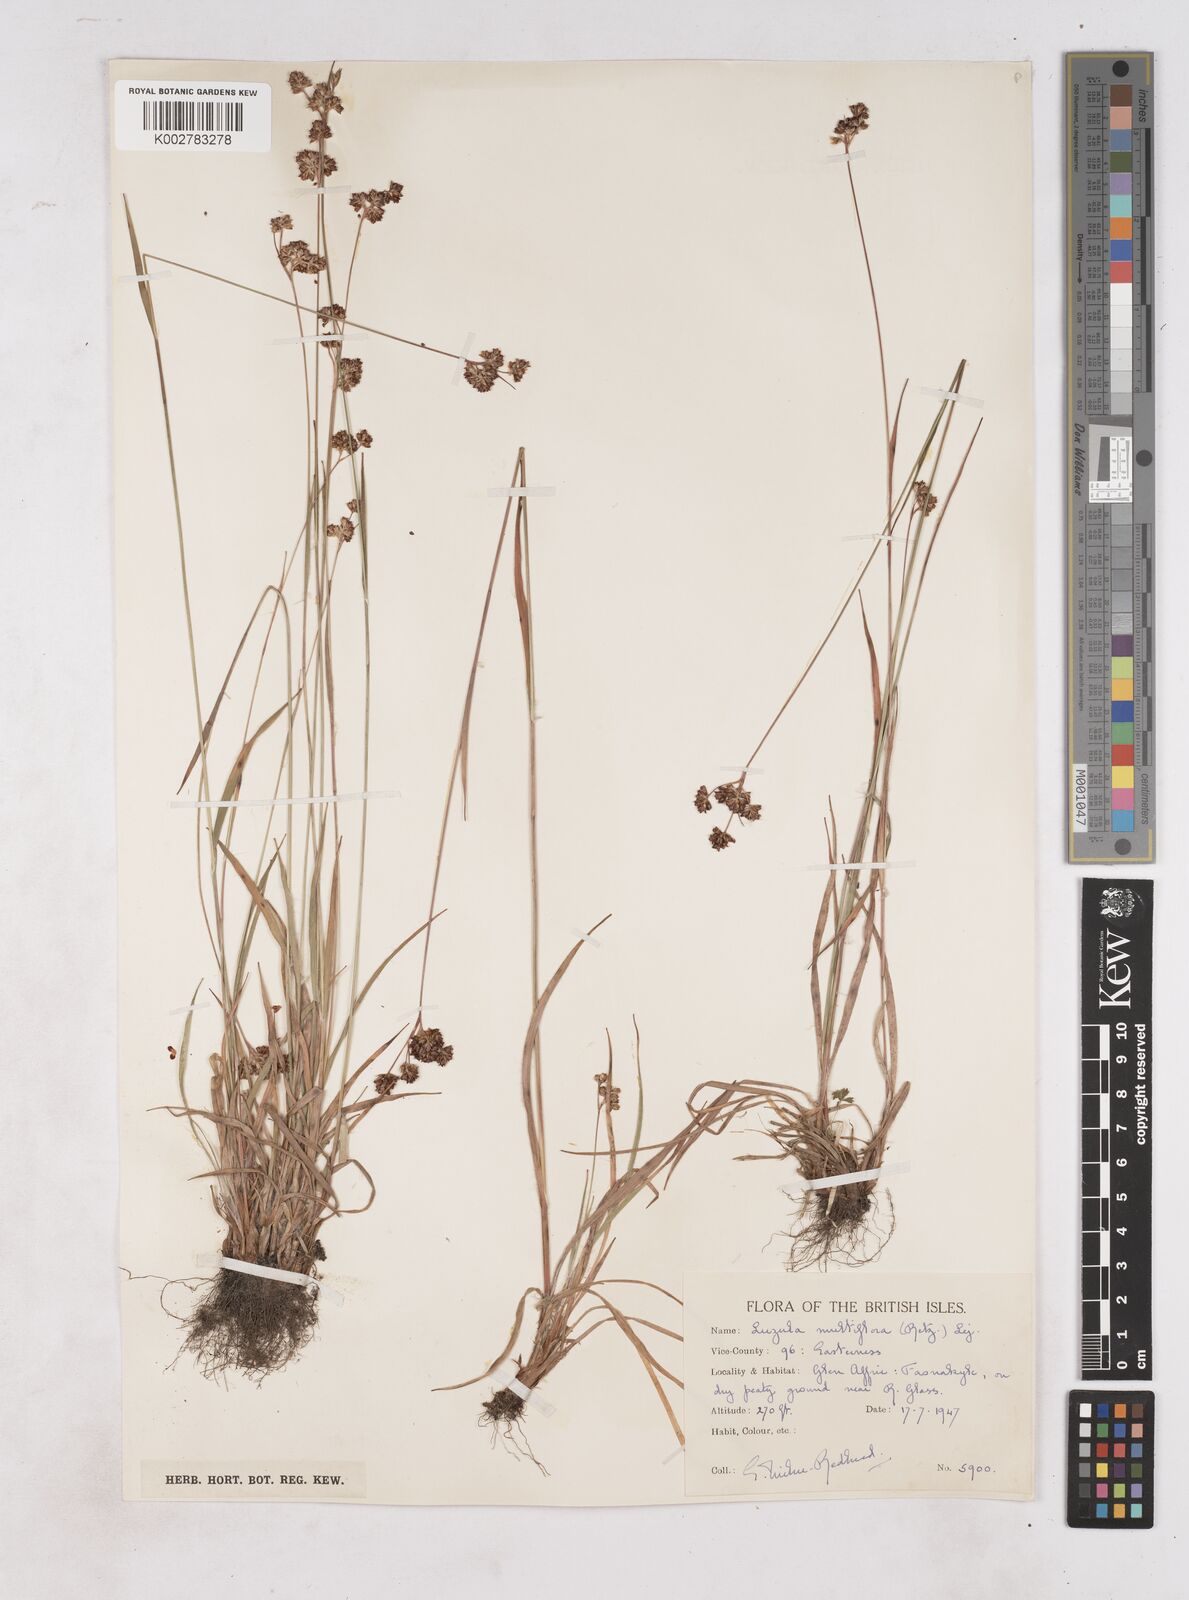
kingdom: Plantae
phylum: Tracheophyta
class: Liliopsida
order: Poales
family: Juncaceae
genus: Luzula
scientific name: Luzula multiflora
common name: Heath wood-rush
